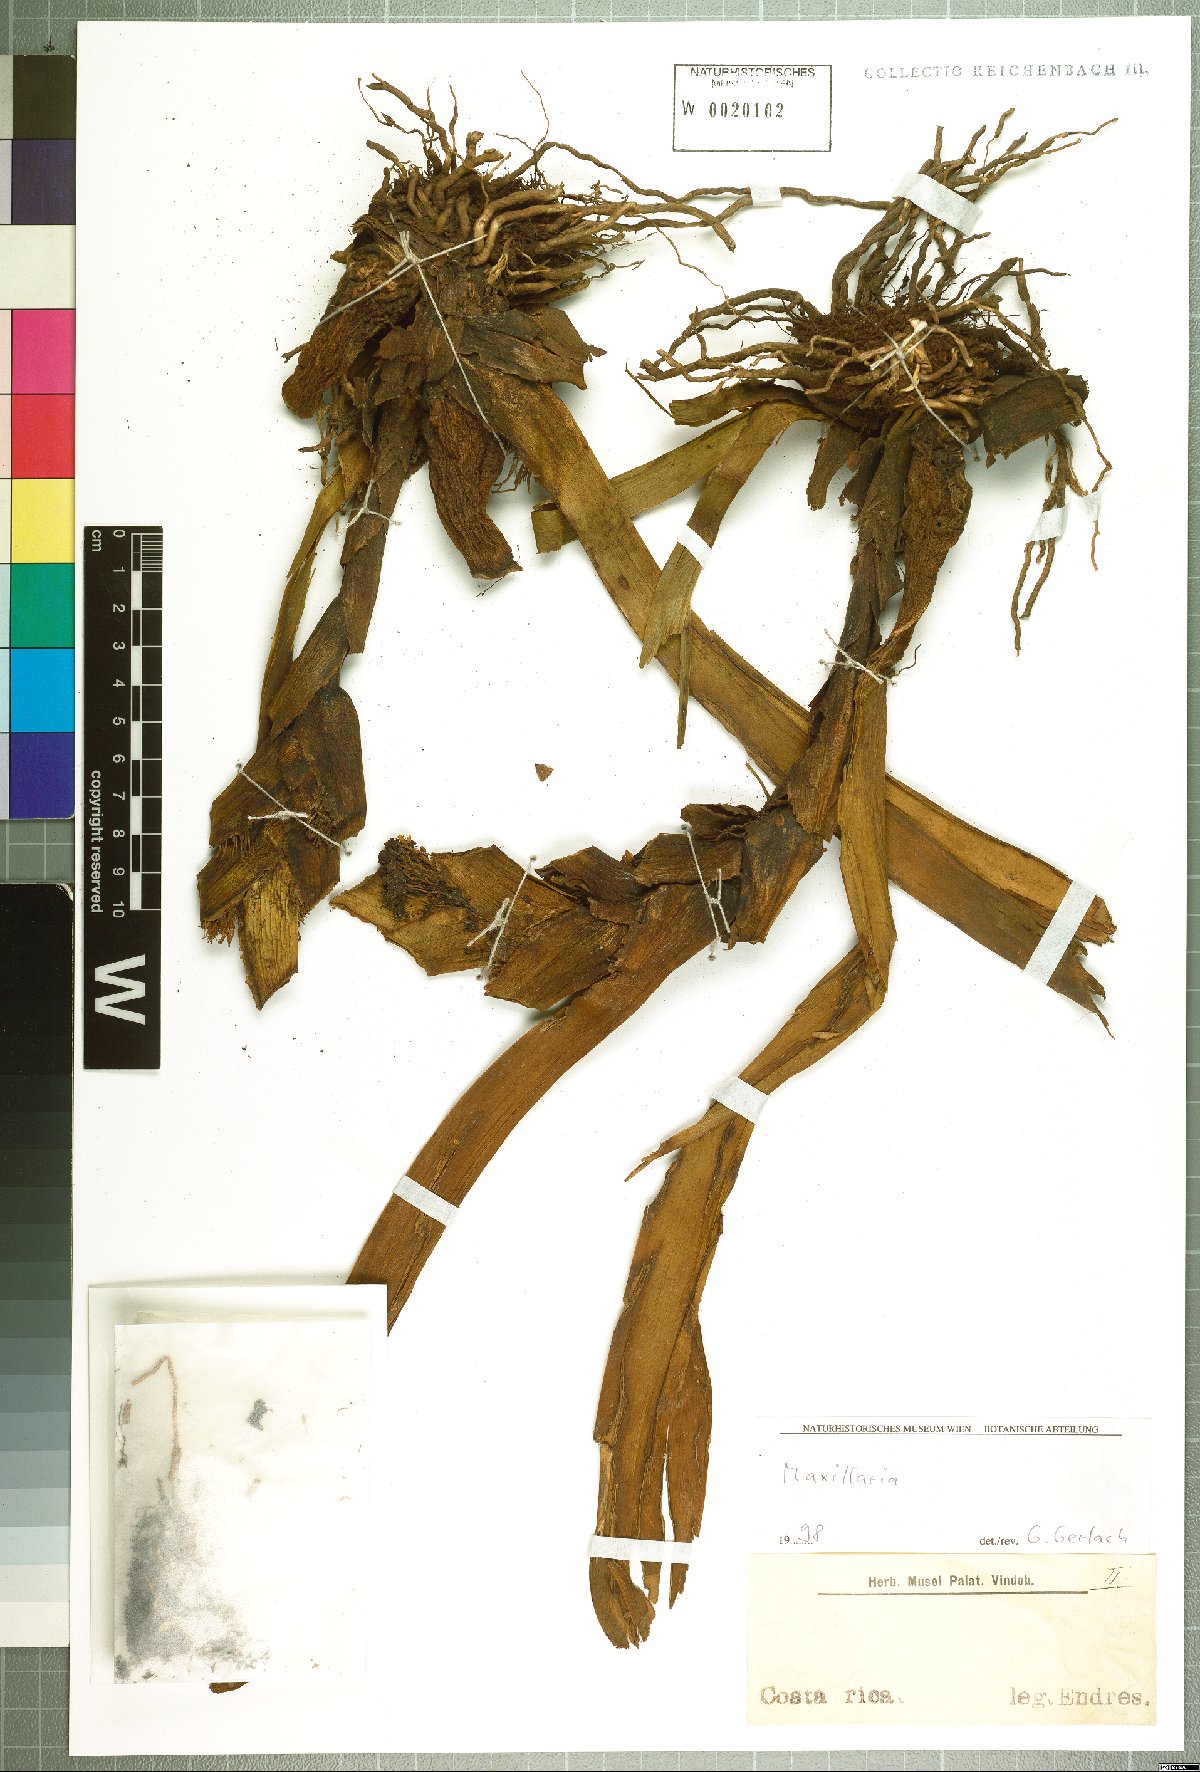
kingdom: Plantae
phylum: Tracheophyta
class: Liliopsida
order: Asparagales
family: Orchidaceae
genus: Maxillaria
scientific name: Maxillaria
